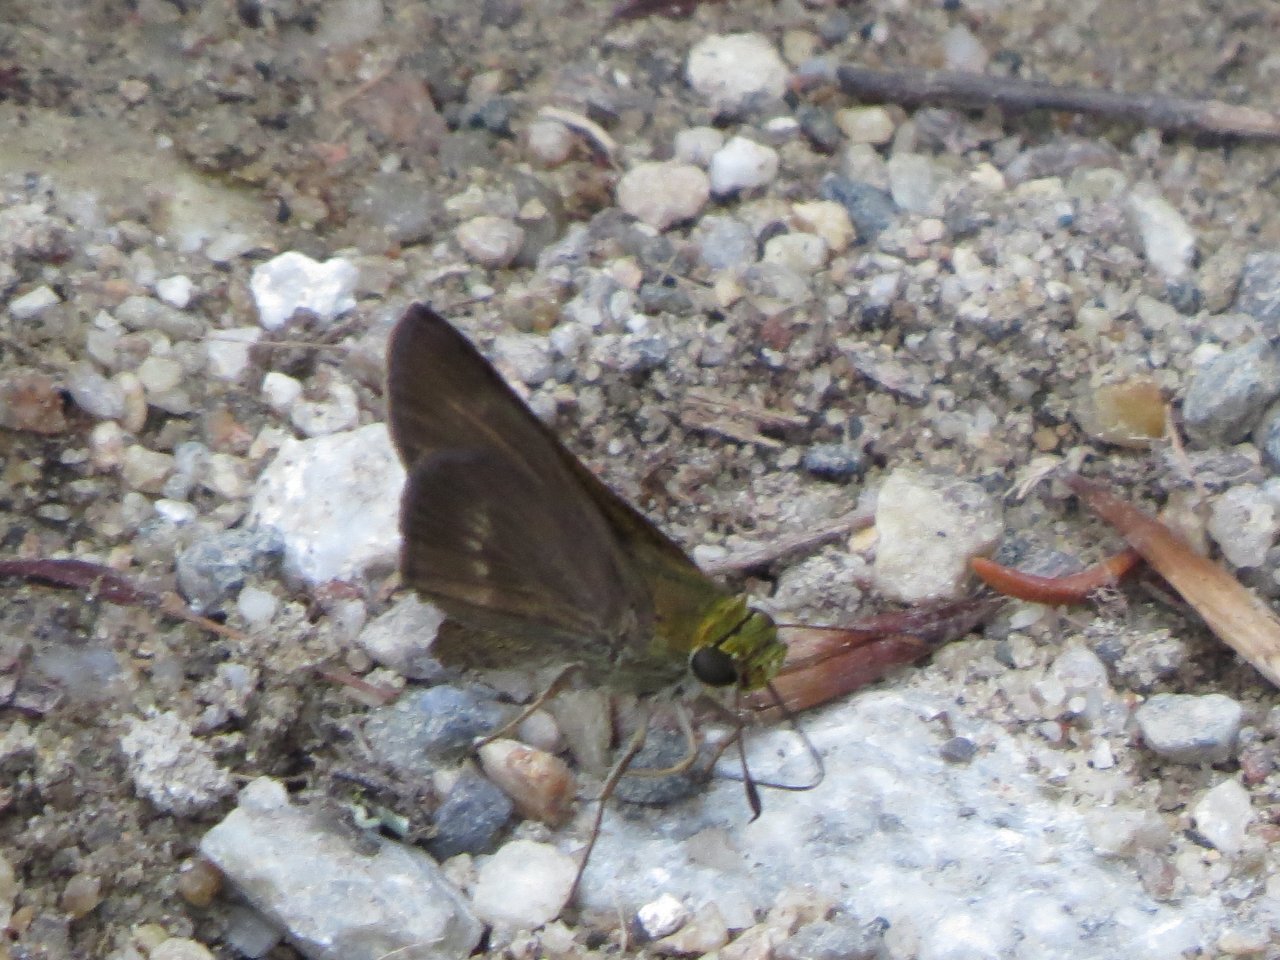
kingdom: Animalia
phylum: Arthropoda
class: Insecta
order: Lepidoptera
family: Hesperiidae
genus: Euphyes
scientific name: Euphyes vestris
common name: Dun Skipper
